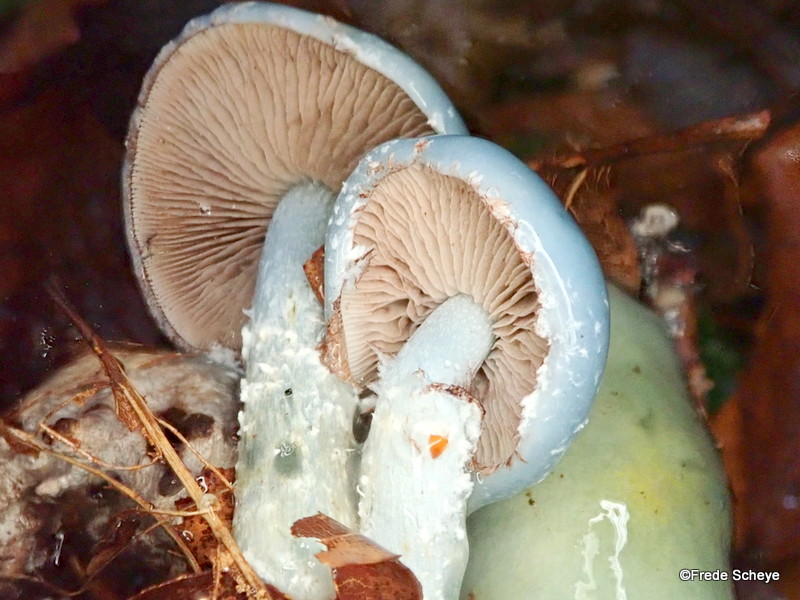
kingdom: Fungi
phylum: Basidiomycota
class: Agaricomycetes
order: Agaricales
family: Strophariaceae
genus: Stropharia
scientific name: Stropharia cyanea
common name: blågrøn bredblad
